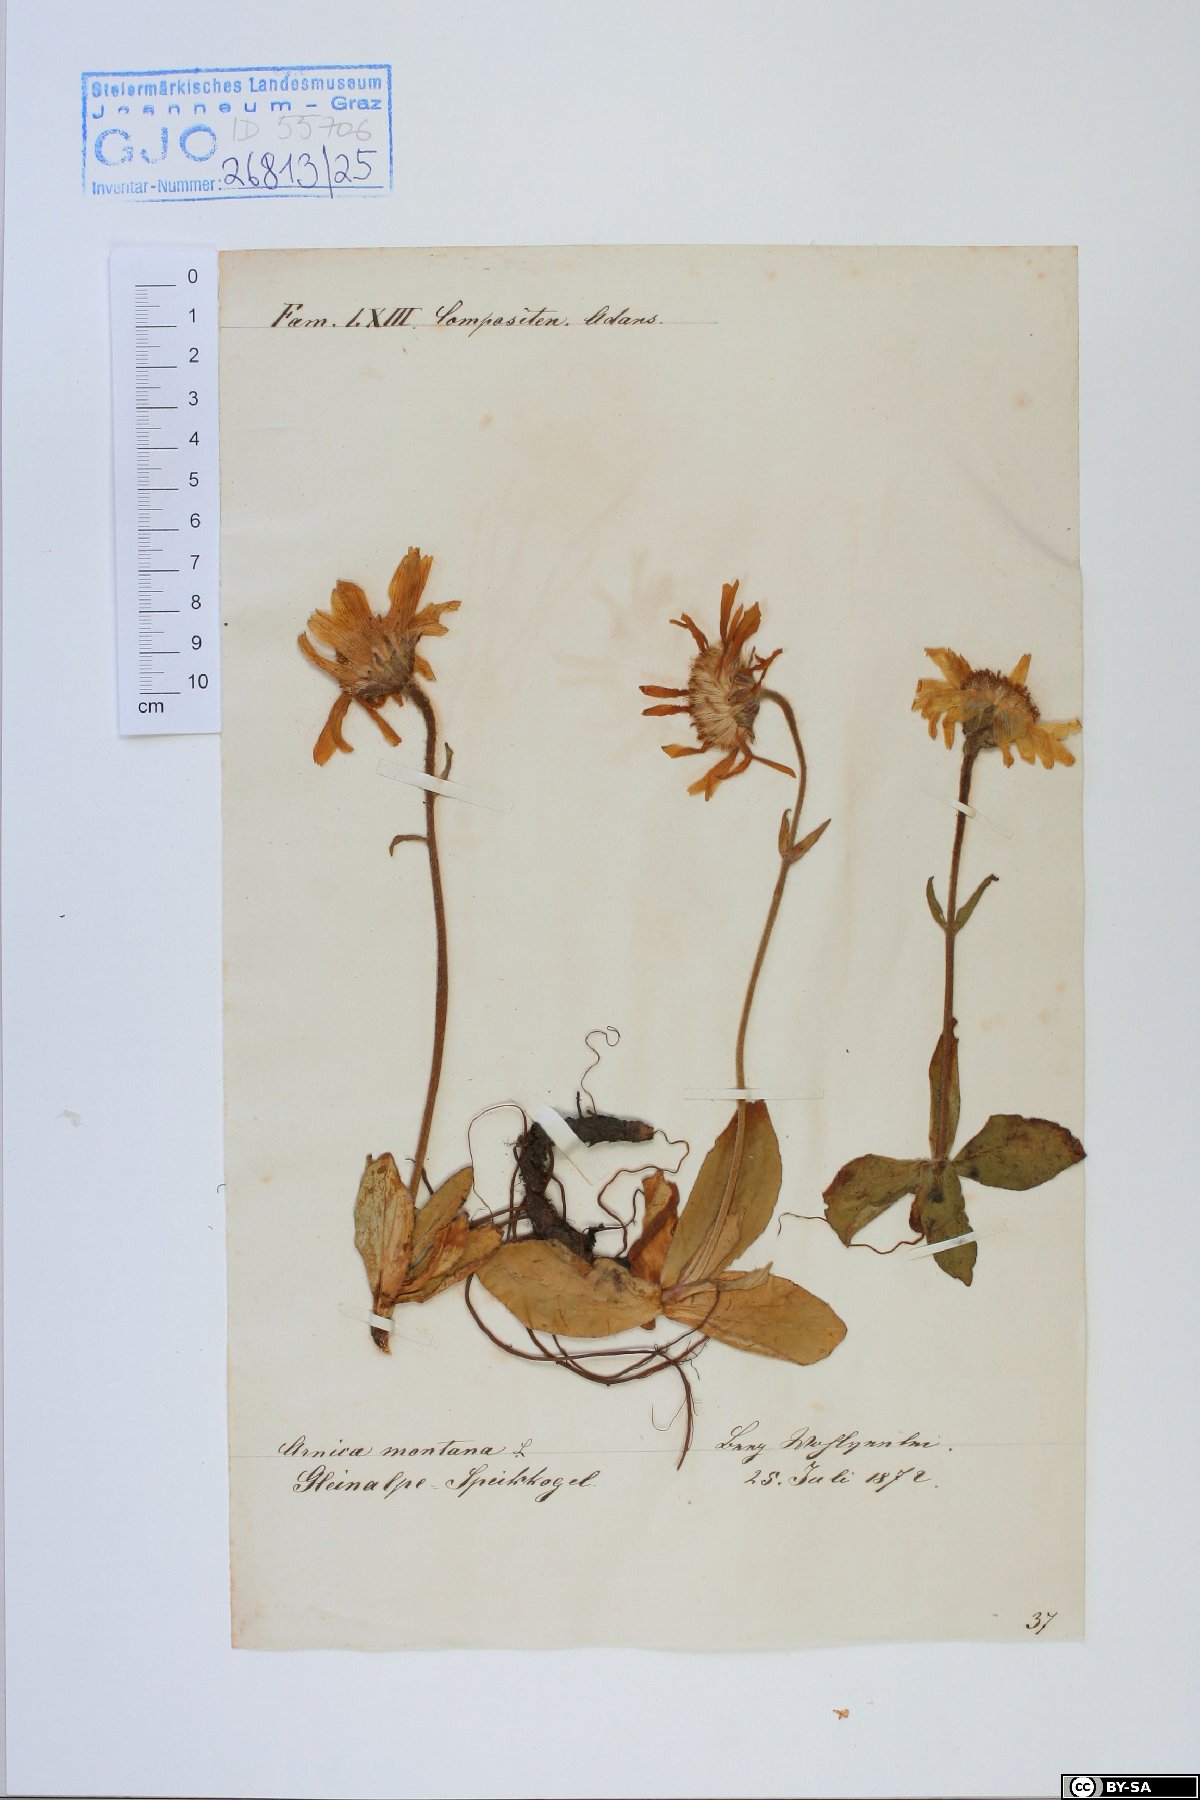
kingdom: Plantae
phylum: Tracheophyta
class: Magnoliopsida
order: Asterales
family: Asteraceae
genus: Arnica
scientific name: Arnica montana
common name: Leopard's bane
